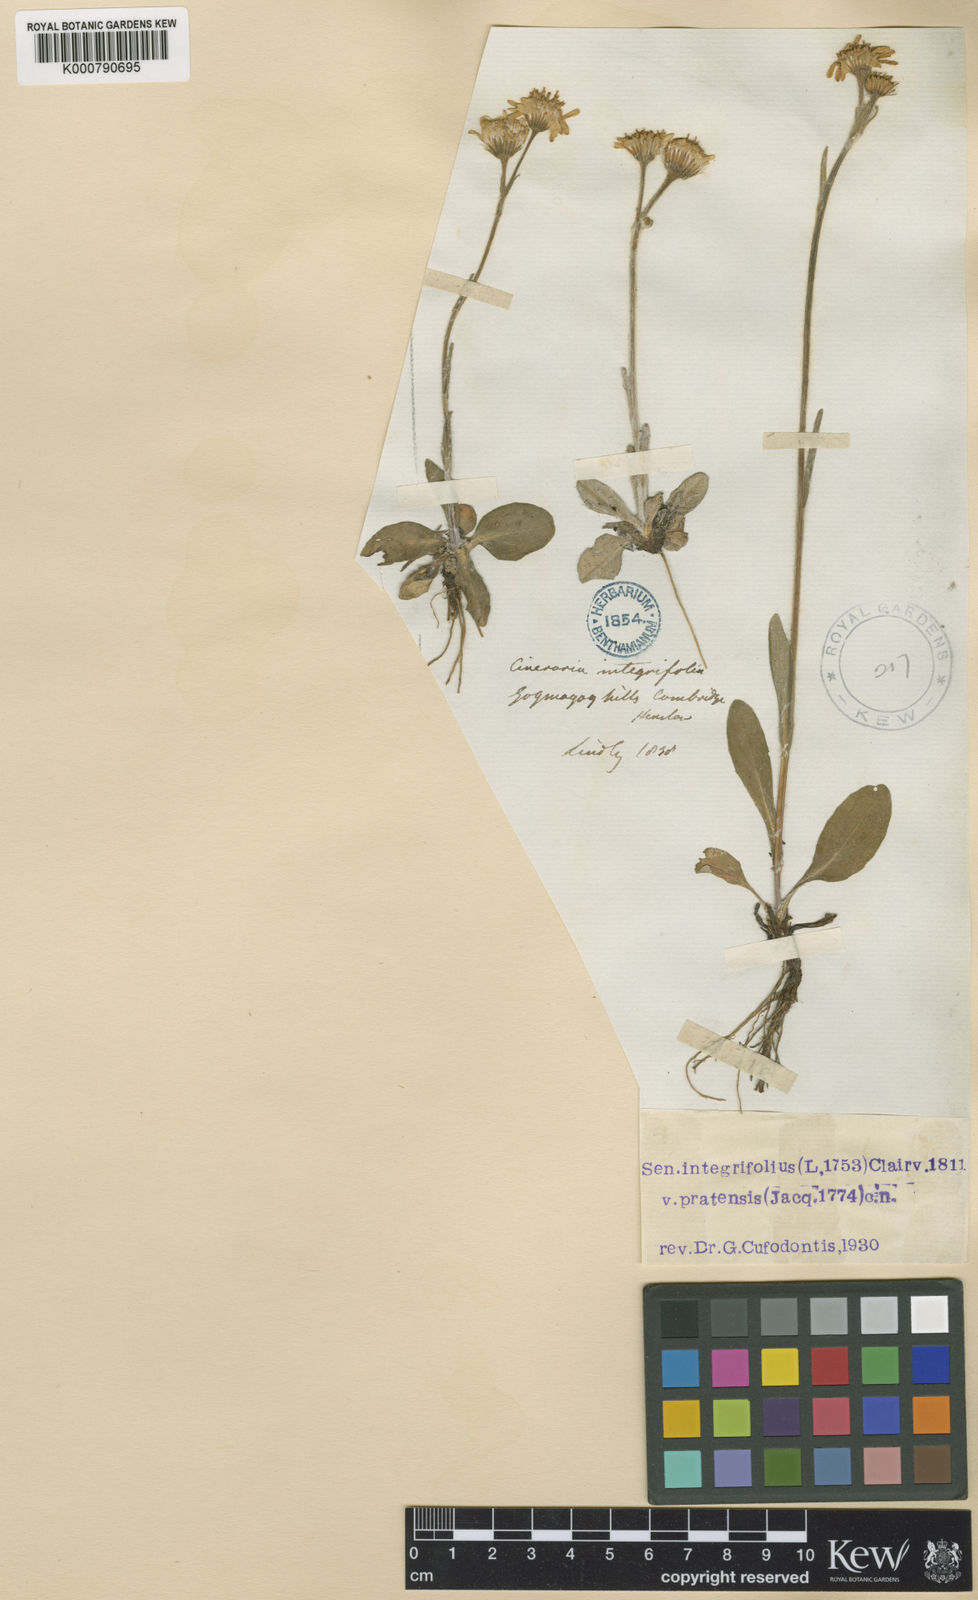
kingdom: Plantae
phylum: Tracheophyta
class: Magnoliopsida
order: Asterales
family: Asteraceae
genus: Tephroseris
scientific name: Tephroseris integrifolia
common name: Field fleawort
